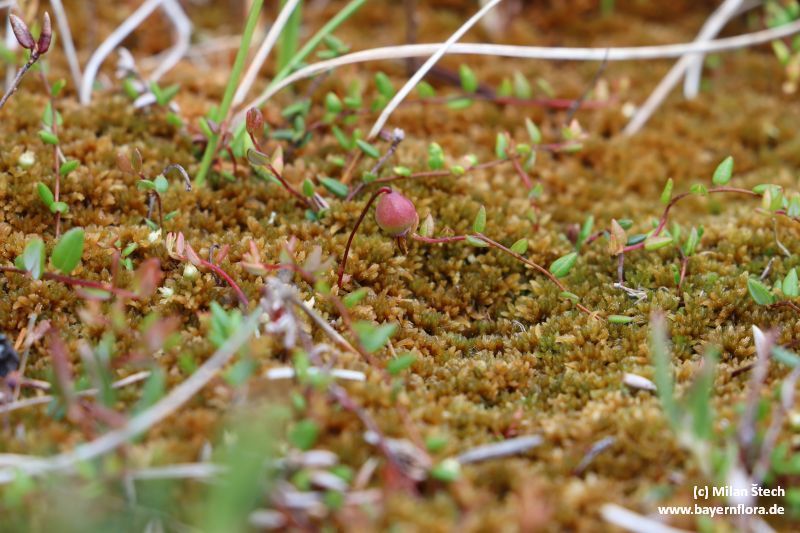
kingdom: Plantae
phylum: Tracheophyta
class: Magnoliopsida
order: Ericales
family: Ericaceae
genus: Vaccinium
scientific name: Vaccinium microcarpum
